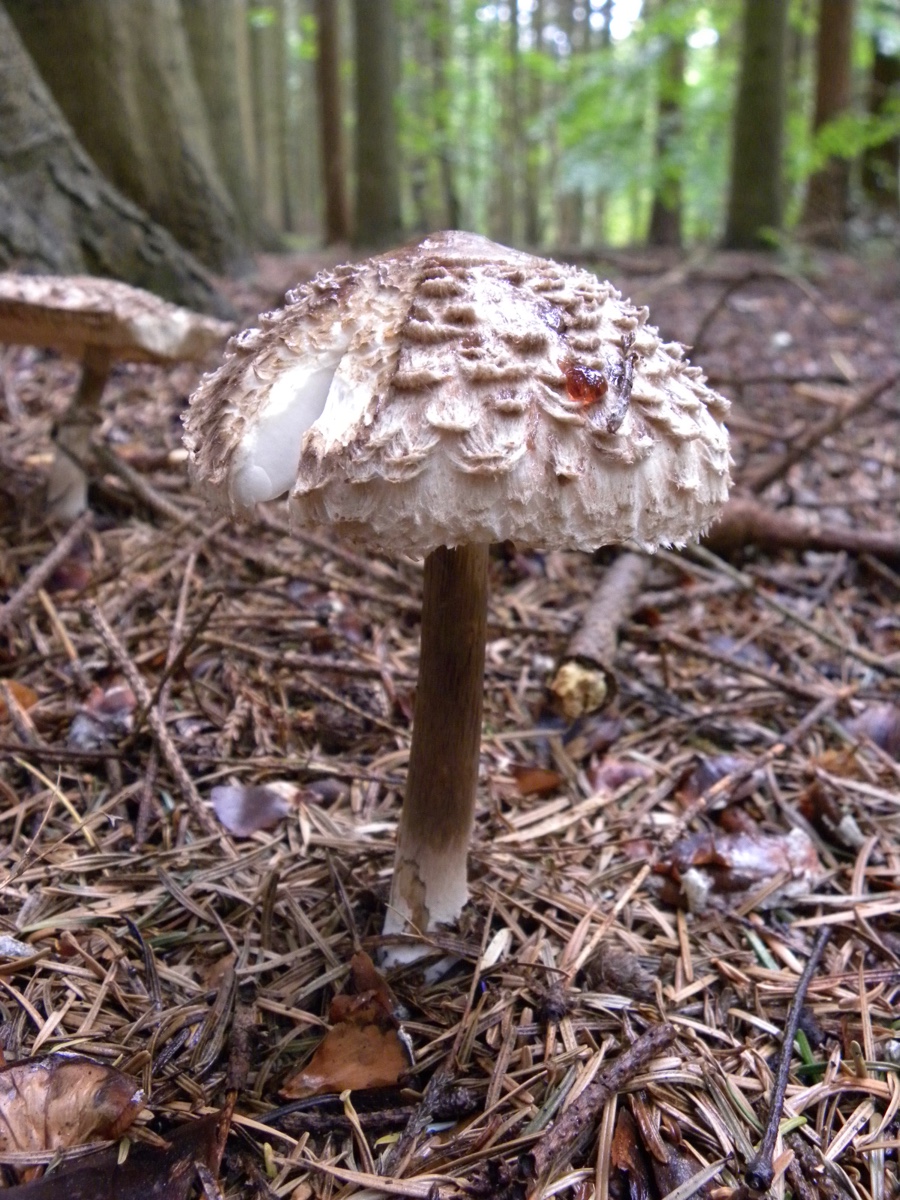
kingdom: Fungi
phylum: Basidiomycota
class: Agaricomycetes
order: Agaricales
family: Agaricaceae
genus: Chlorophyllum
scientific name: Chlorophyllum olivieri
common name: almindelig rabarberhat
